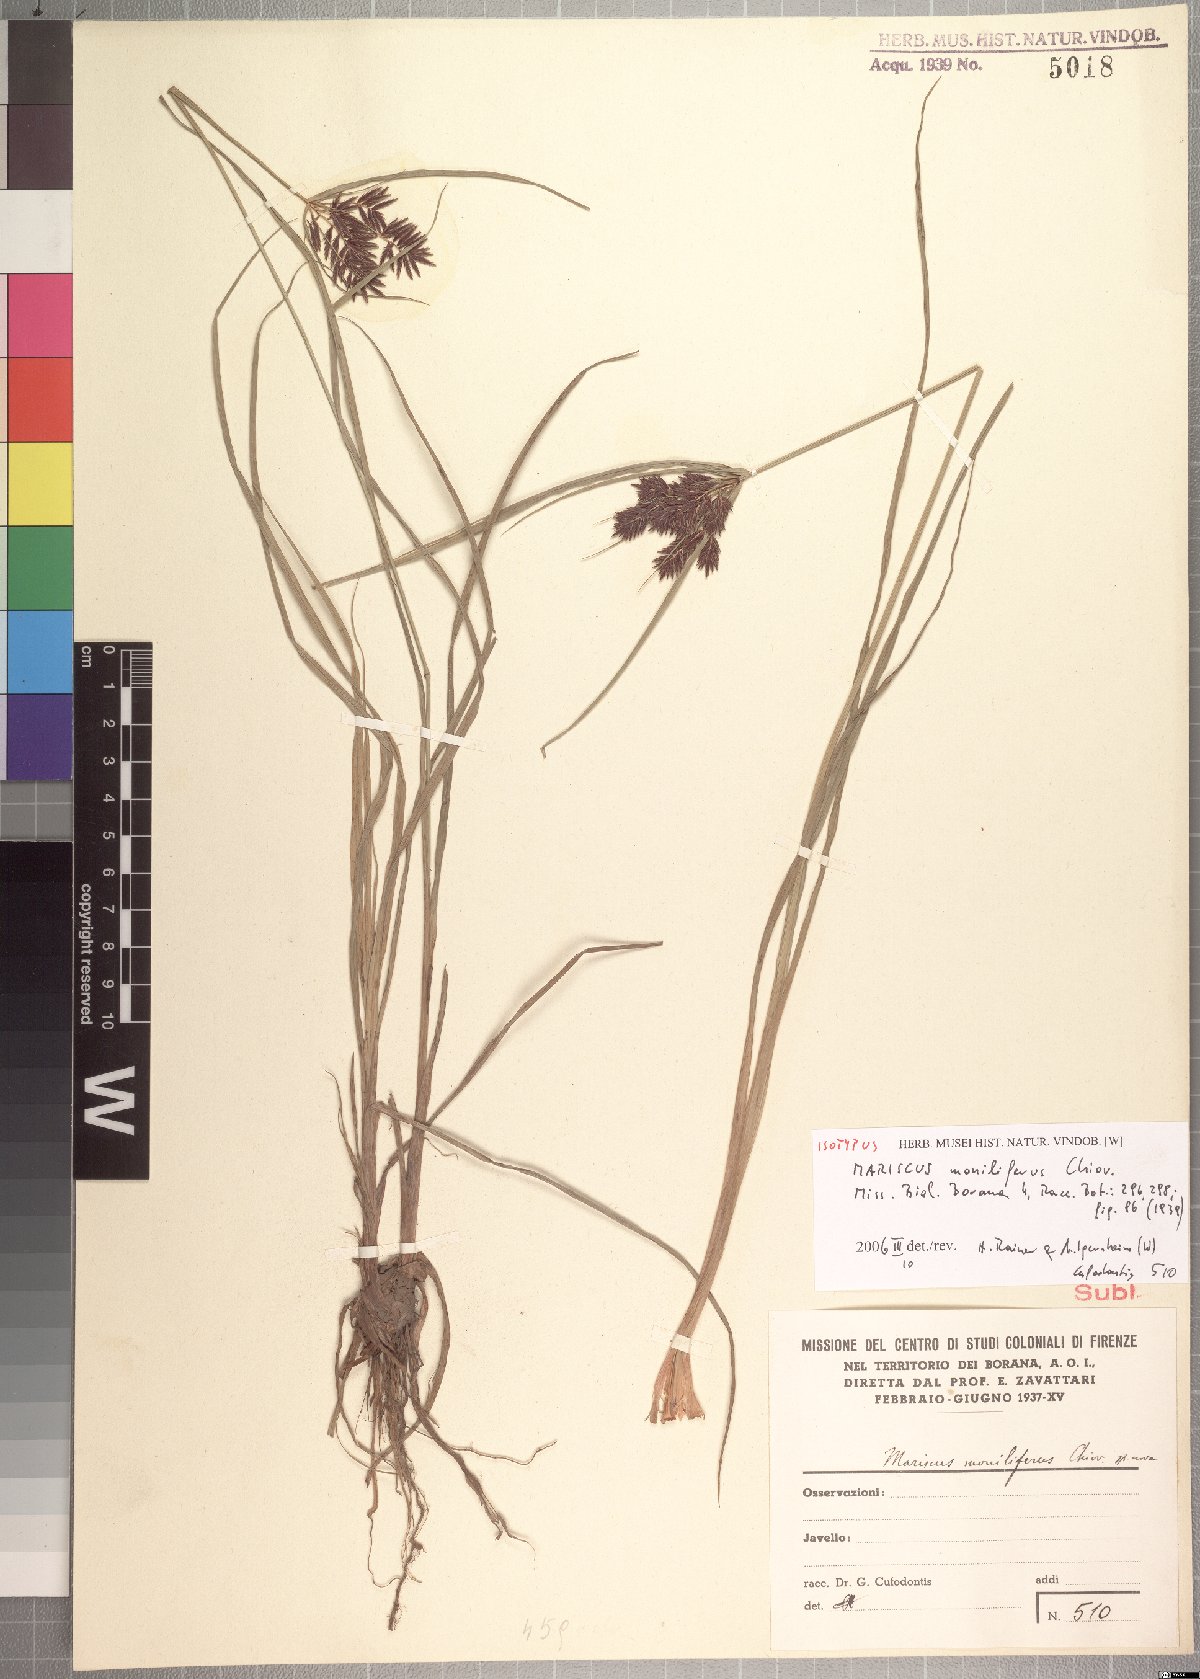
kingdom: Plantae
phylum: Tracheophyta
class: Liliopsida
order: Poales
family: Cyperaceae
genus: Cyperus
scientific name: Cyperus impubes
